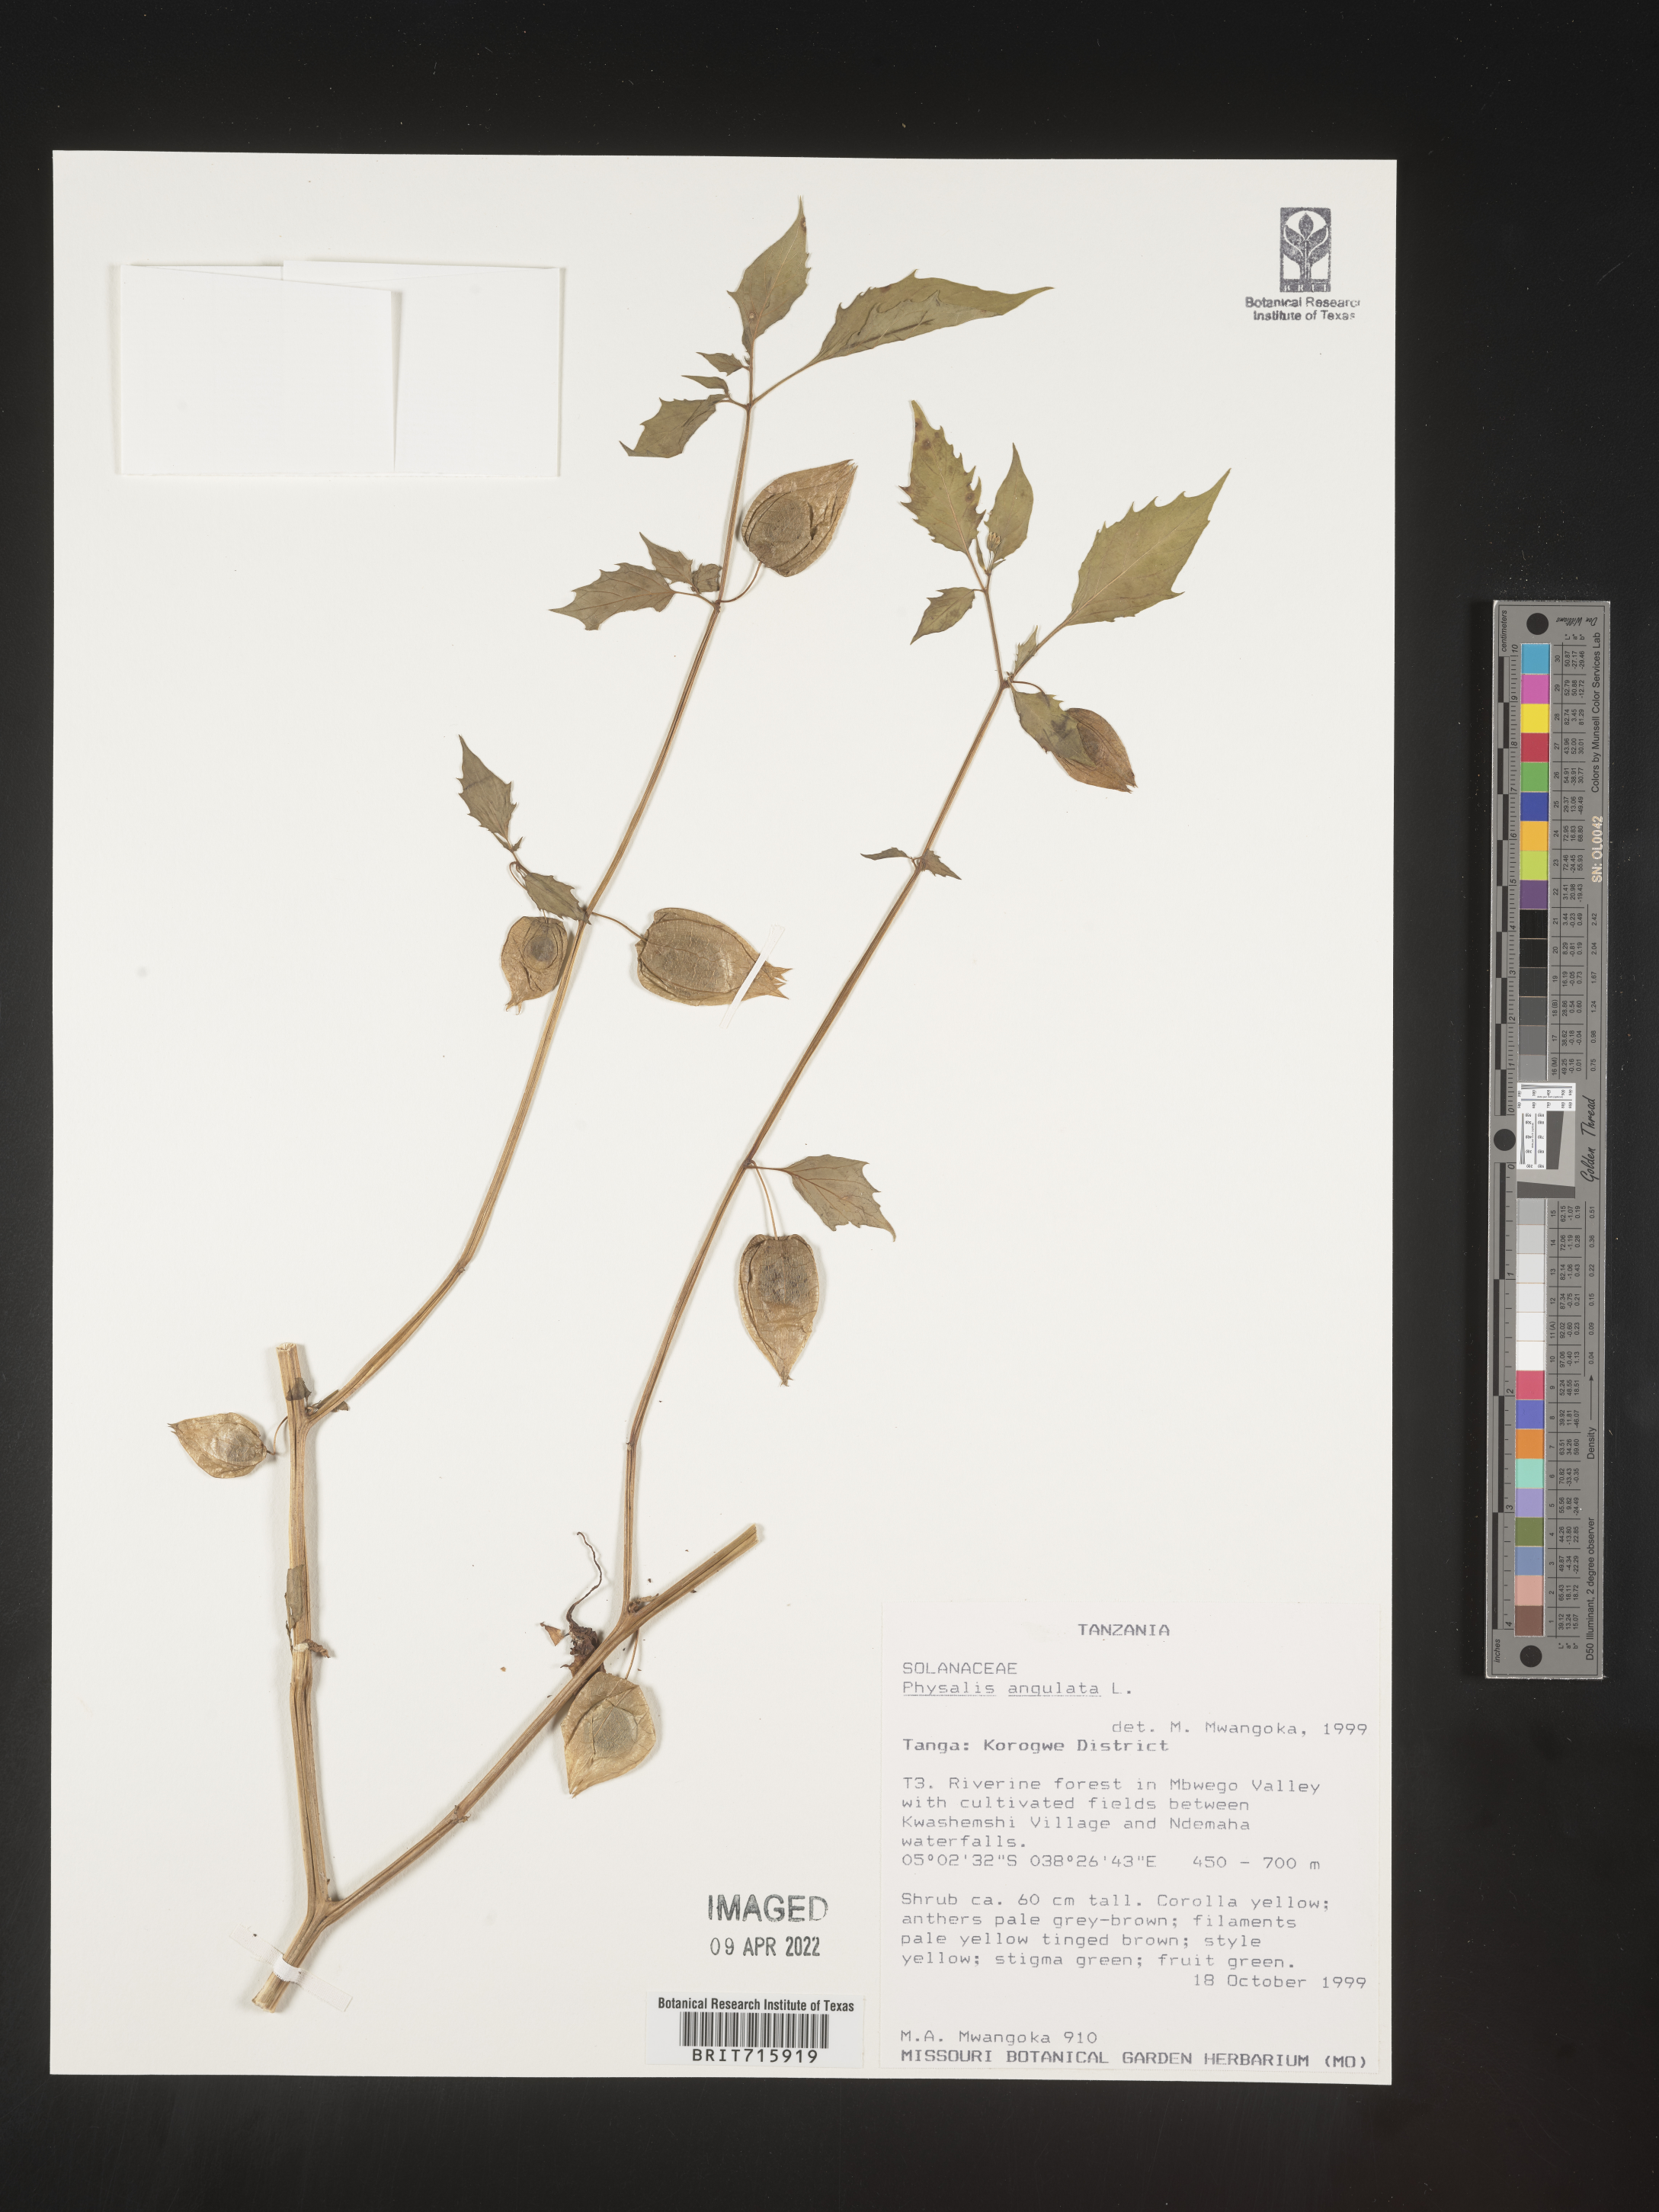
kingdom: Plantae
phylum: Tracheophyta
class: Magnoliopsida
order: Solanales
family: Solanaceae
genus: Physalis
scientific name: Physalis
